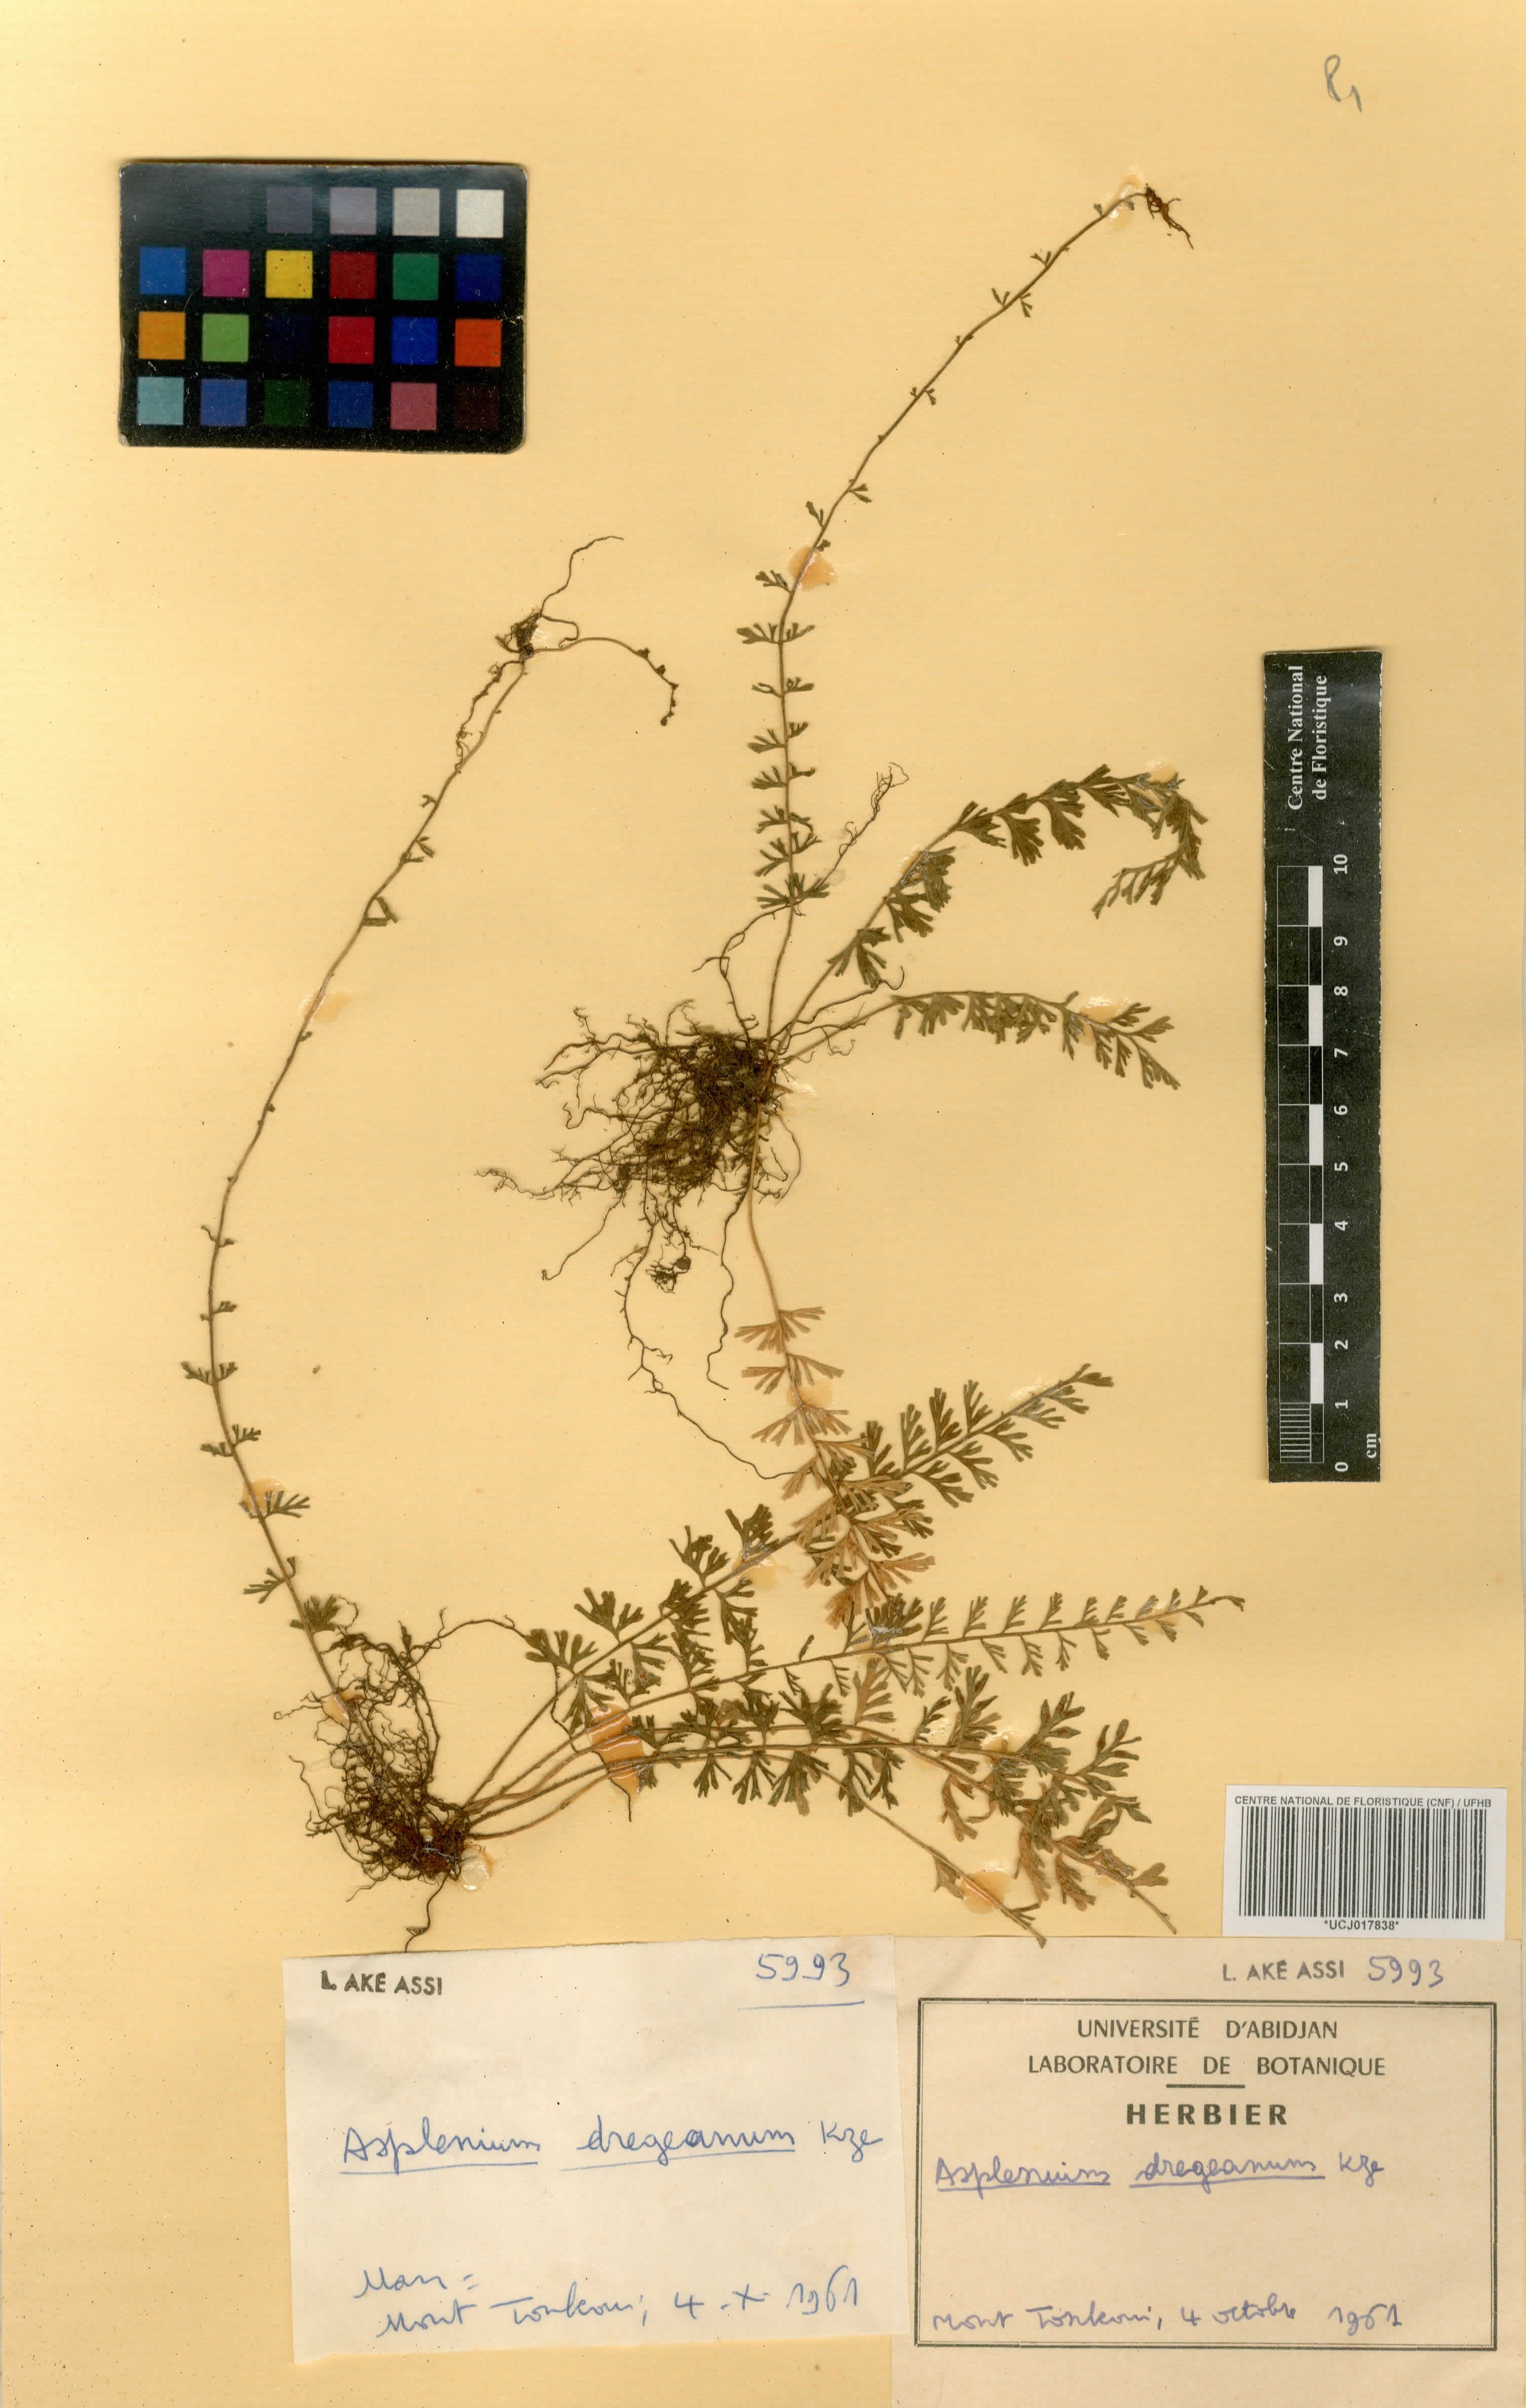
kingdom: Plantae
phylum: Tracheophyta
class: Polypodiopsida
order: Polypodiales
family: Aspleniaceae
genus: Asplenium
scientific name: Asplenium dregeanum
